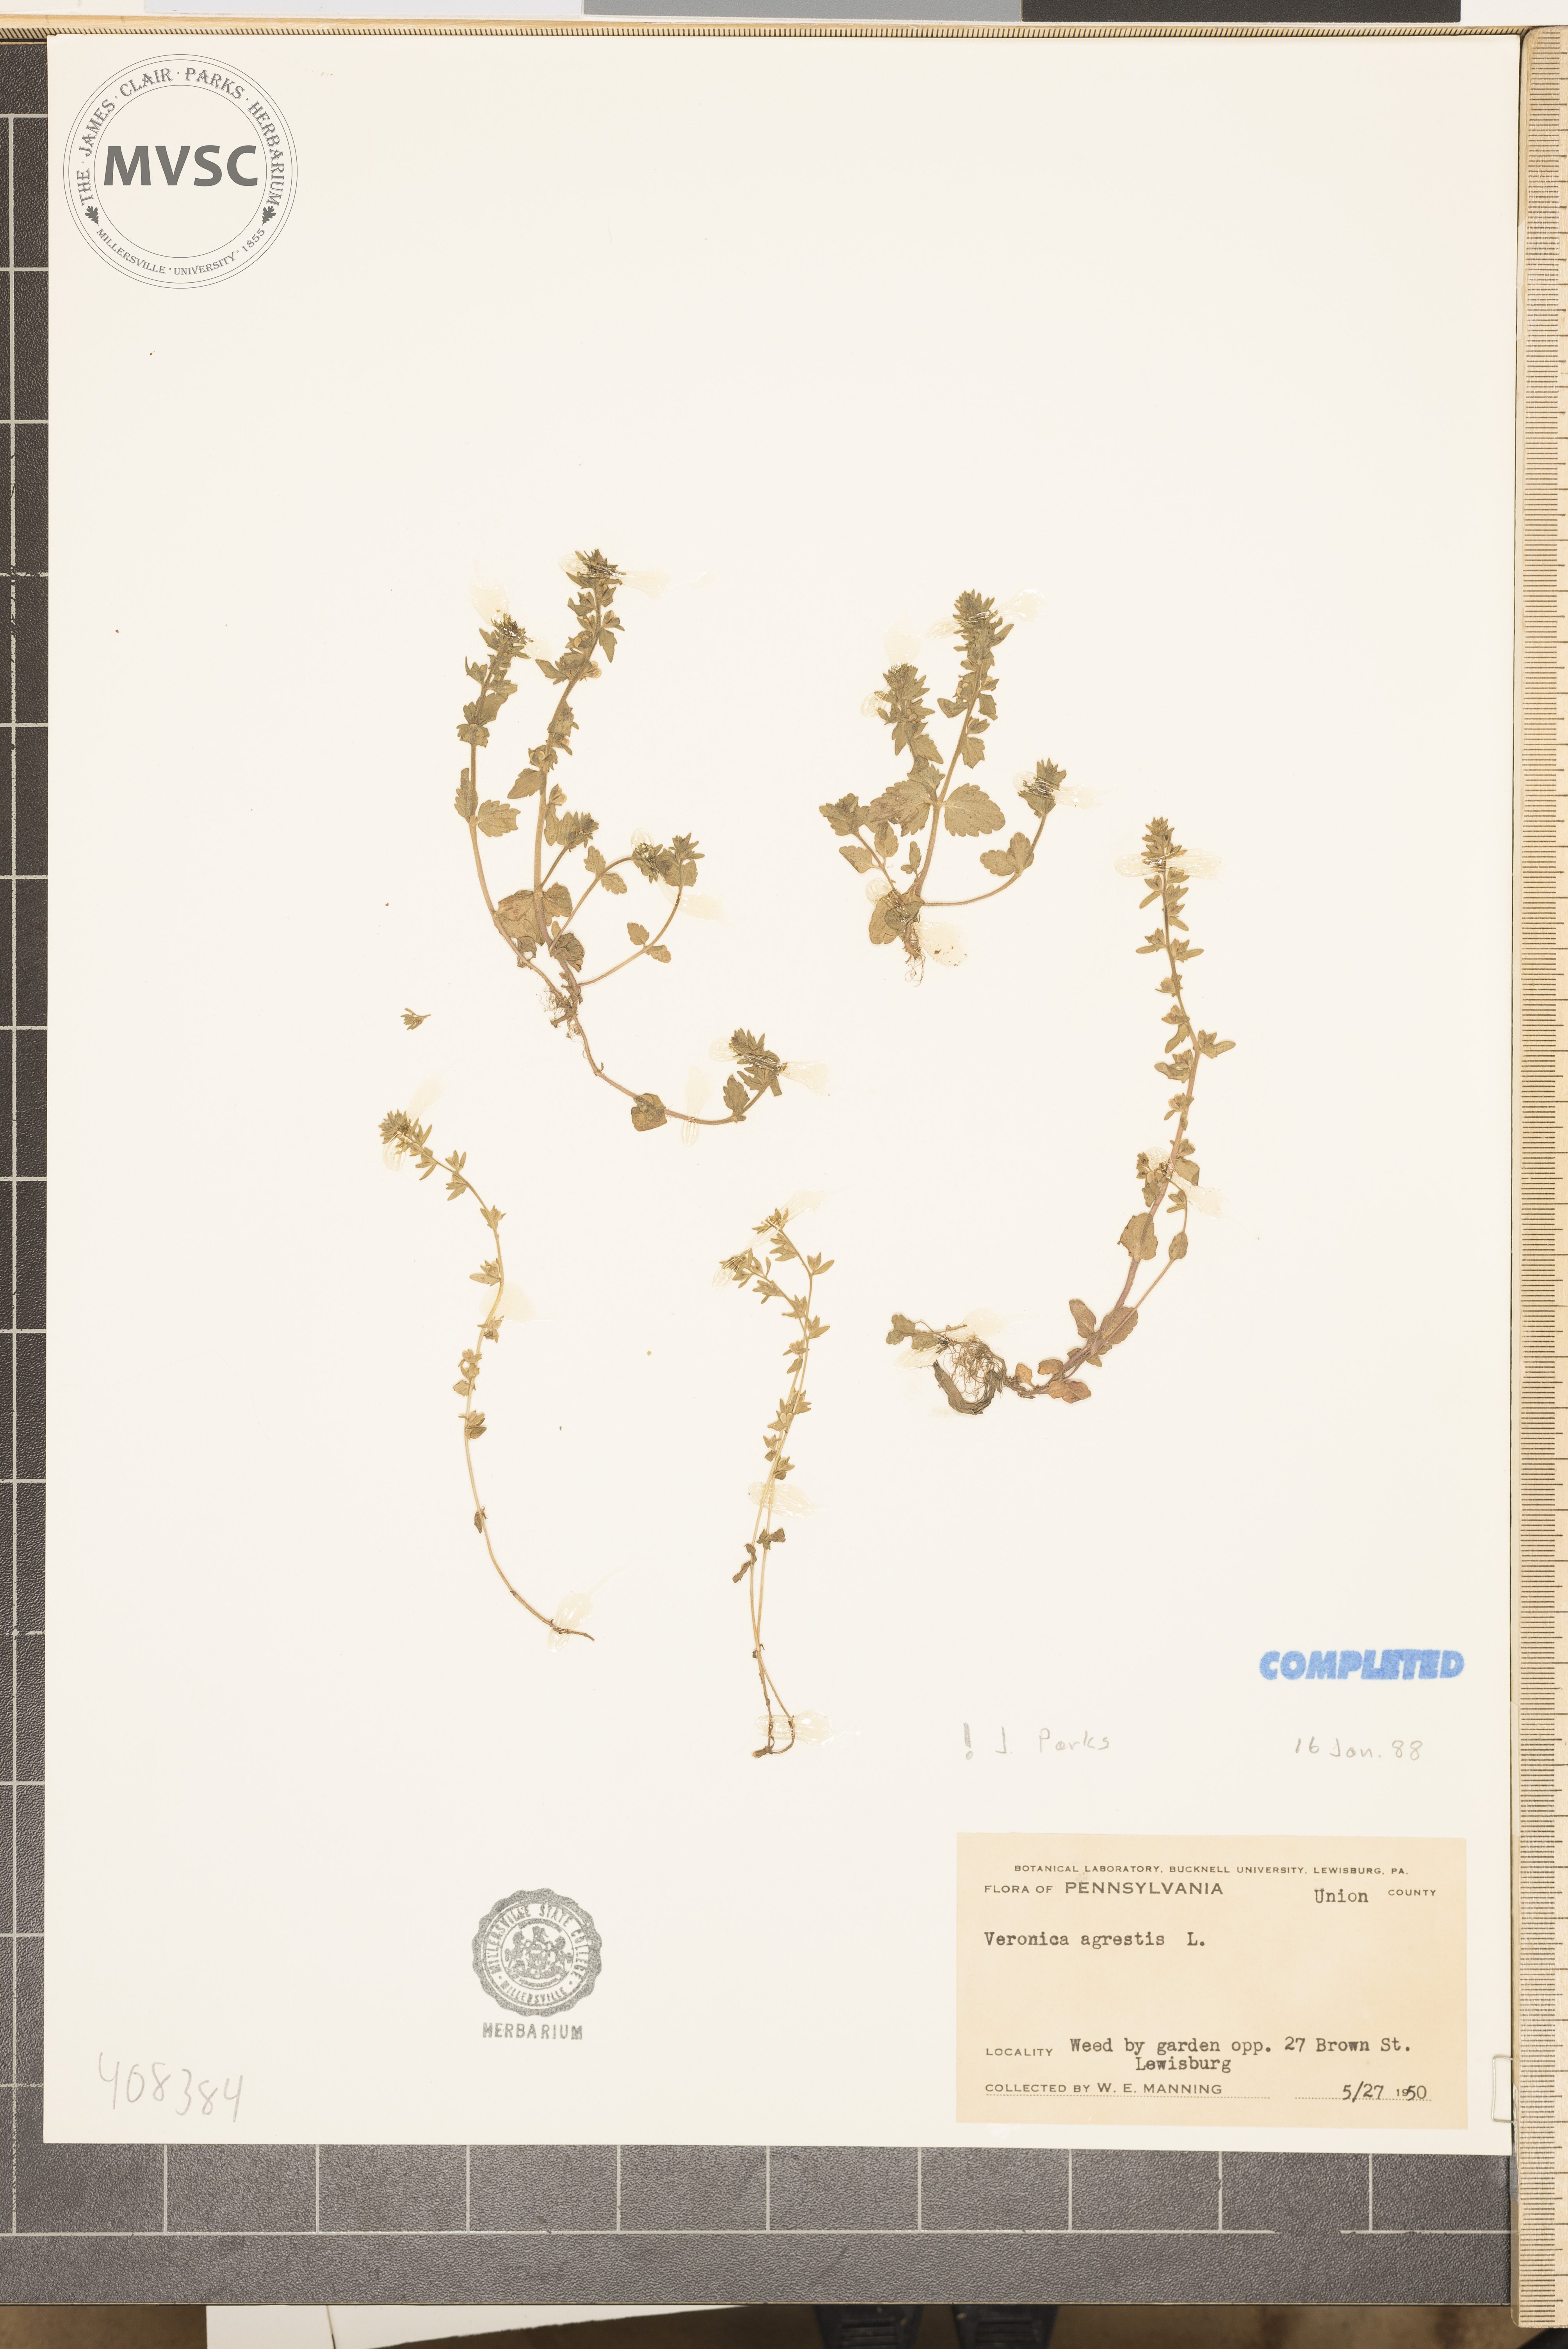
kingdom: Plantae
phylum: Tracheophyta
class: Magnoliopsida
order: Lamiales
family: Plantaginaceae
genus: Veronica
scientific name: Veronica agrestis
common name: Green field-speedwell
